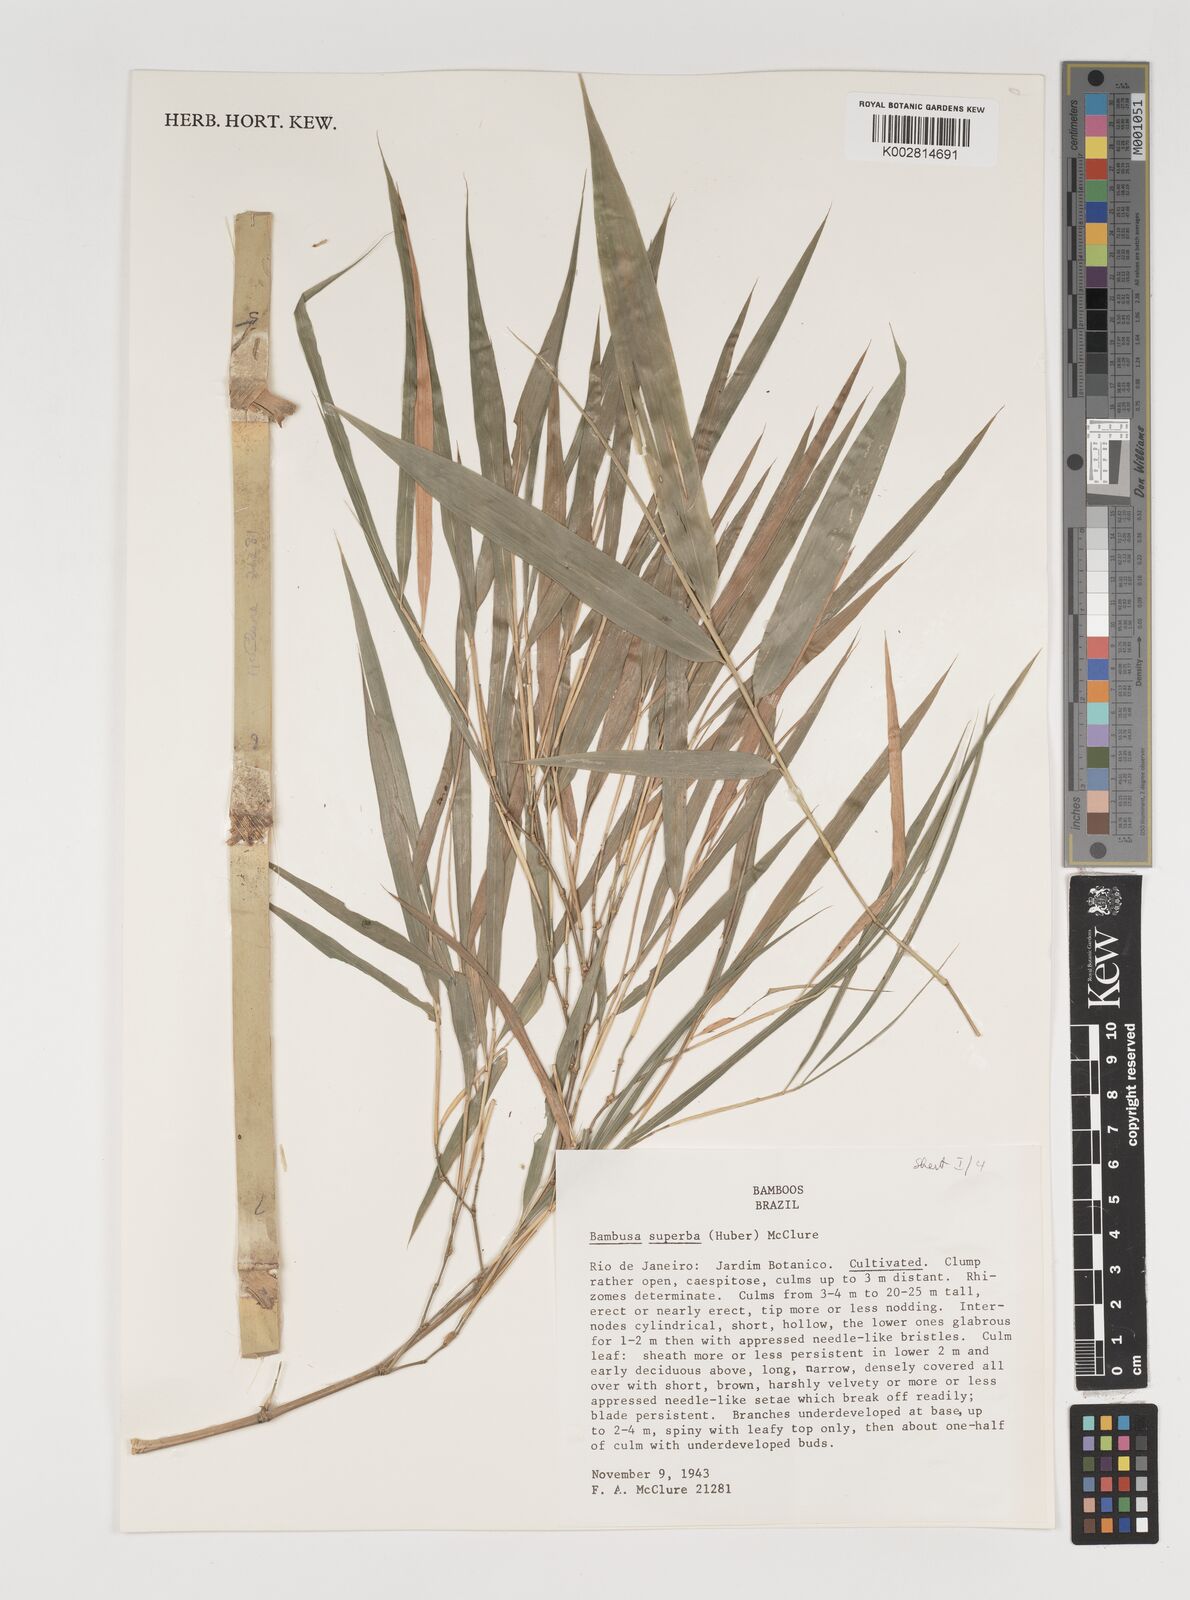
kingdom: Plantae
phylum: Tracheophyta
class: Liliopsida
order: Poales
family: Poaceae
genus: Guadua
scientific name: Guadua superba
